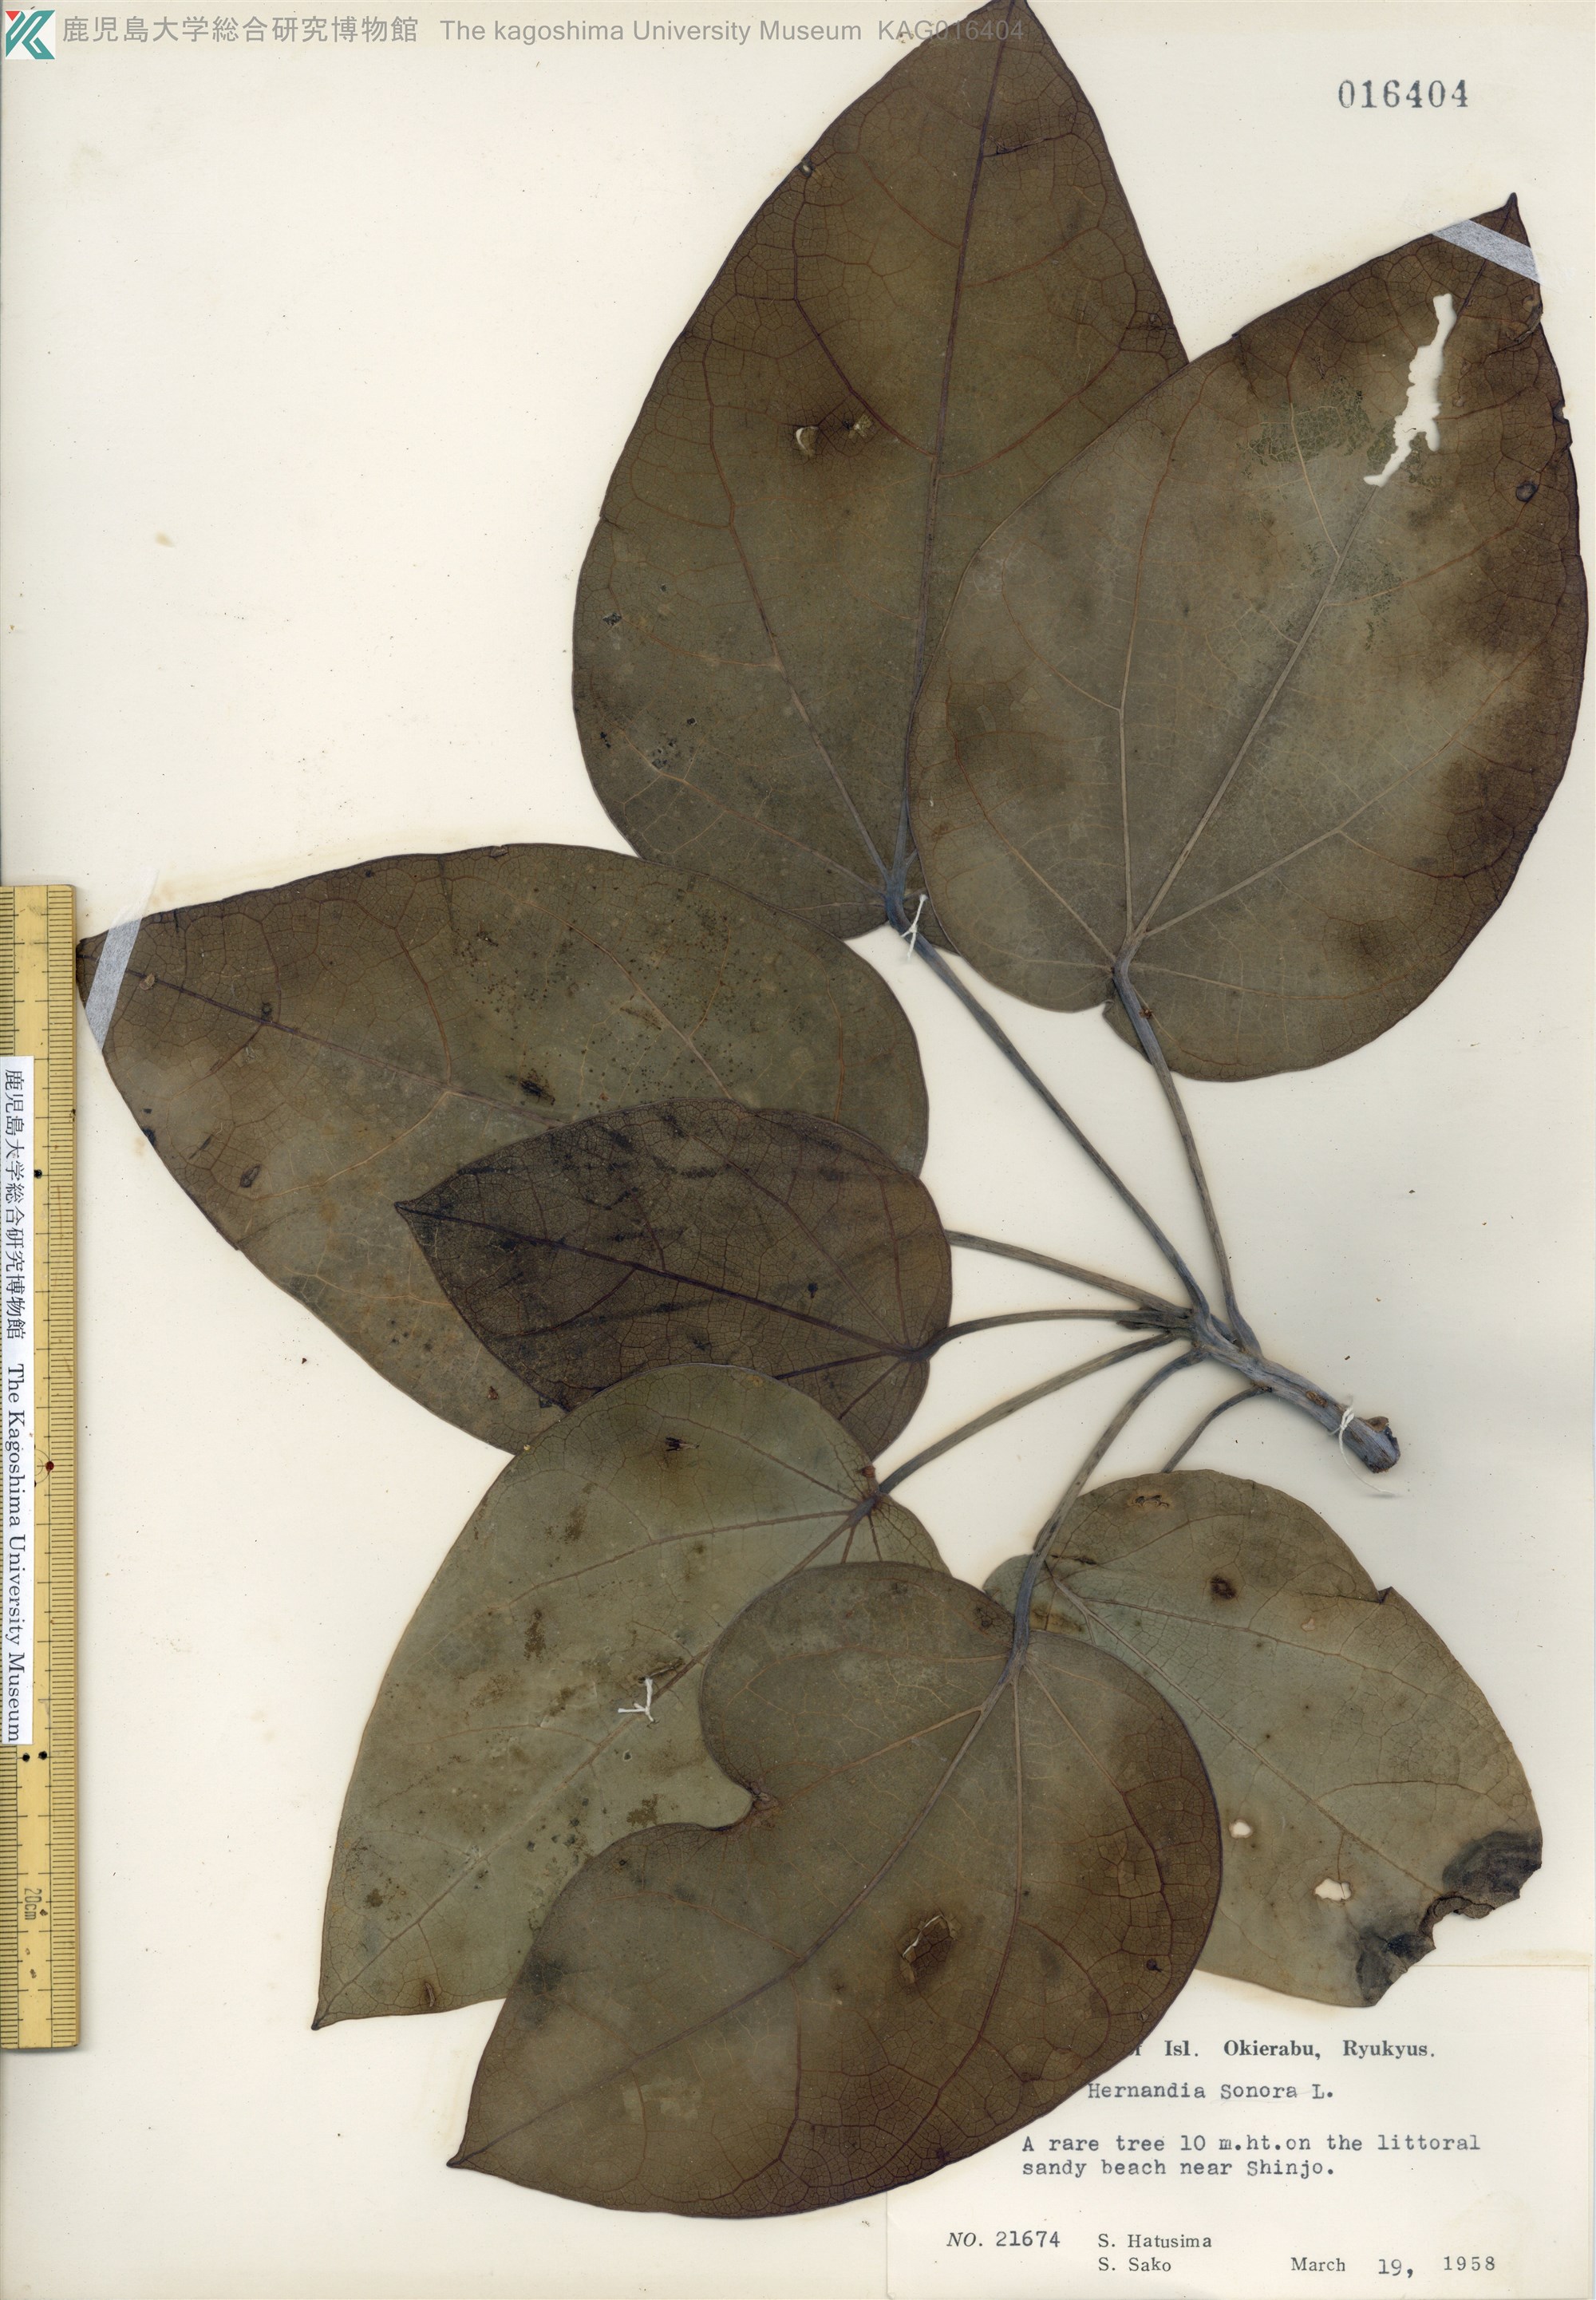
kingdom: Plantae
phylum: Tracheophyta
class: Magnoliopsida
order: Laurales
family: Hernandiaceae
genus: Hernandia
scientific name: Hernandia nymphaeifolia
